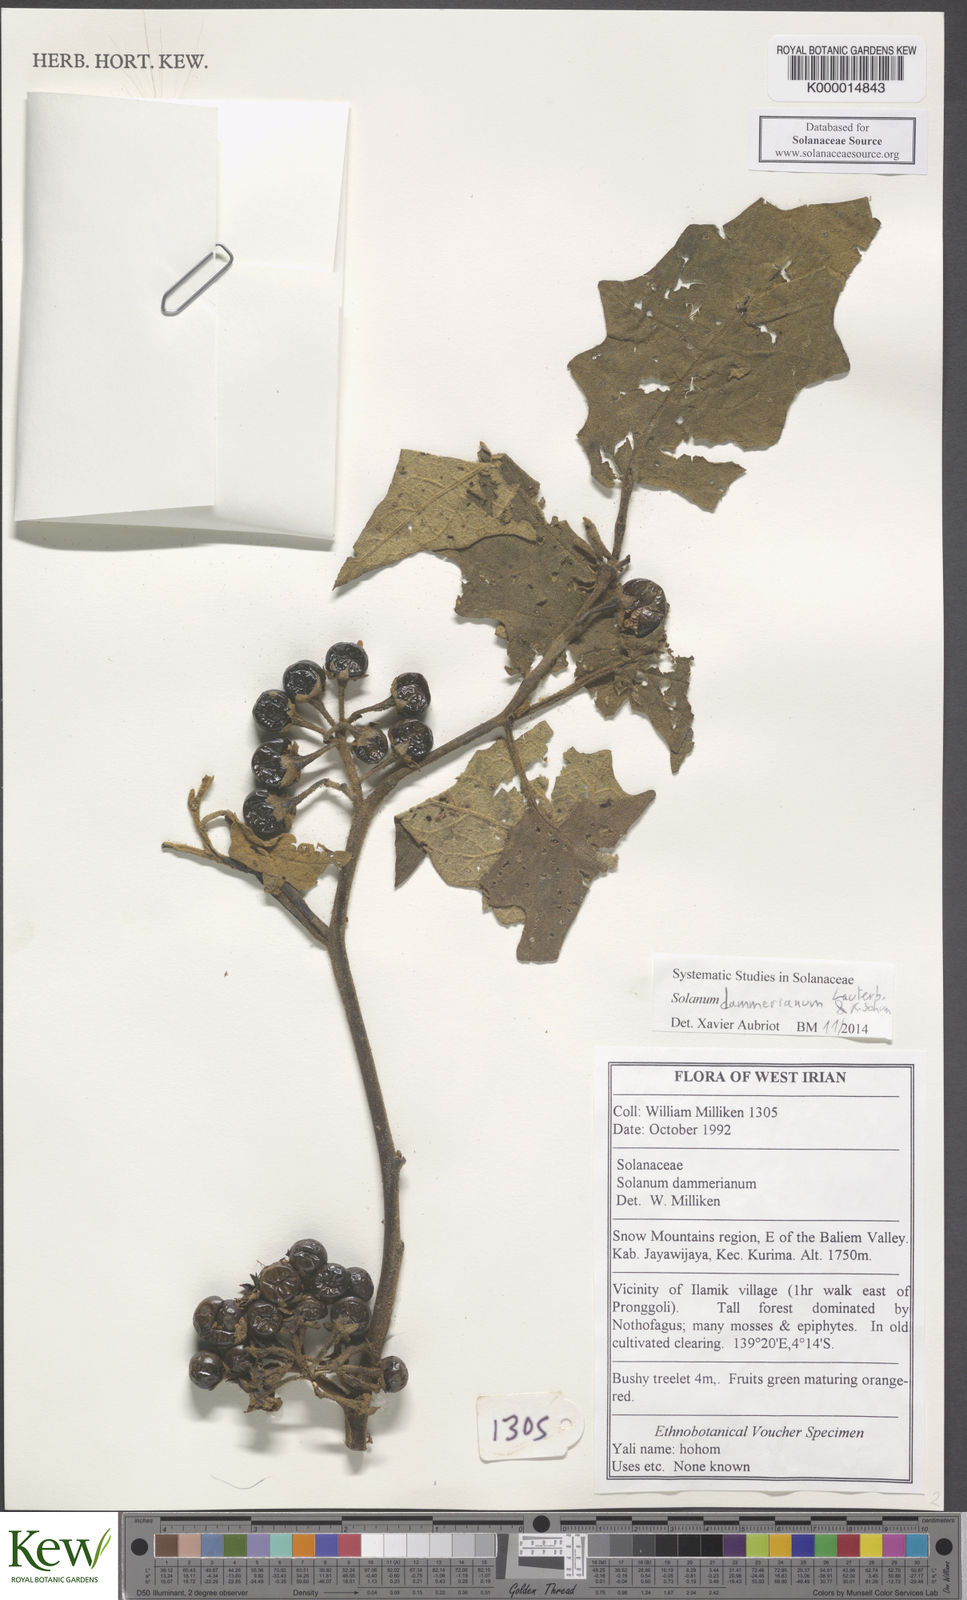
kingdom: Plantae
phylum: Tracheophyta
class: Magnoliopsida
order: Solanales
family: Solanaceae
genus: Solanum
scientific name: Solanum dammerianum
